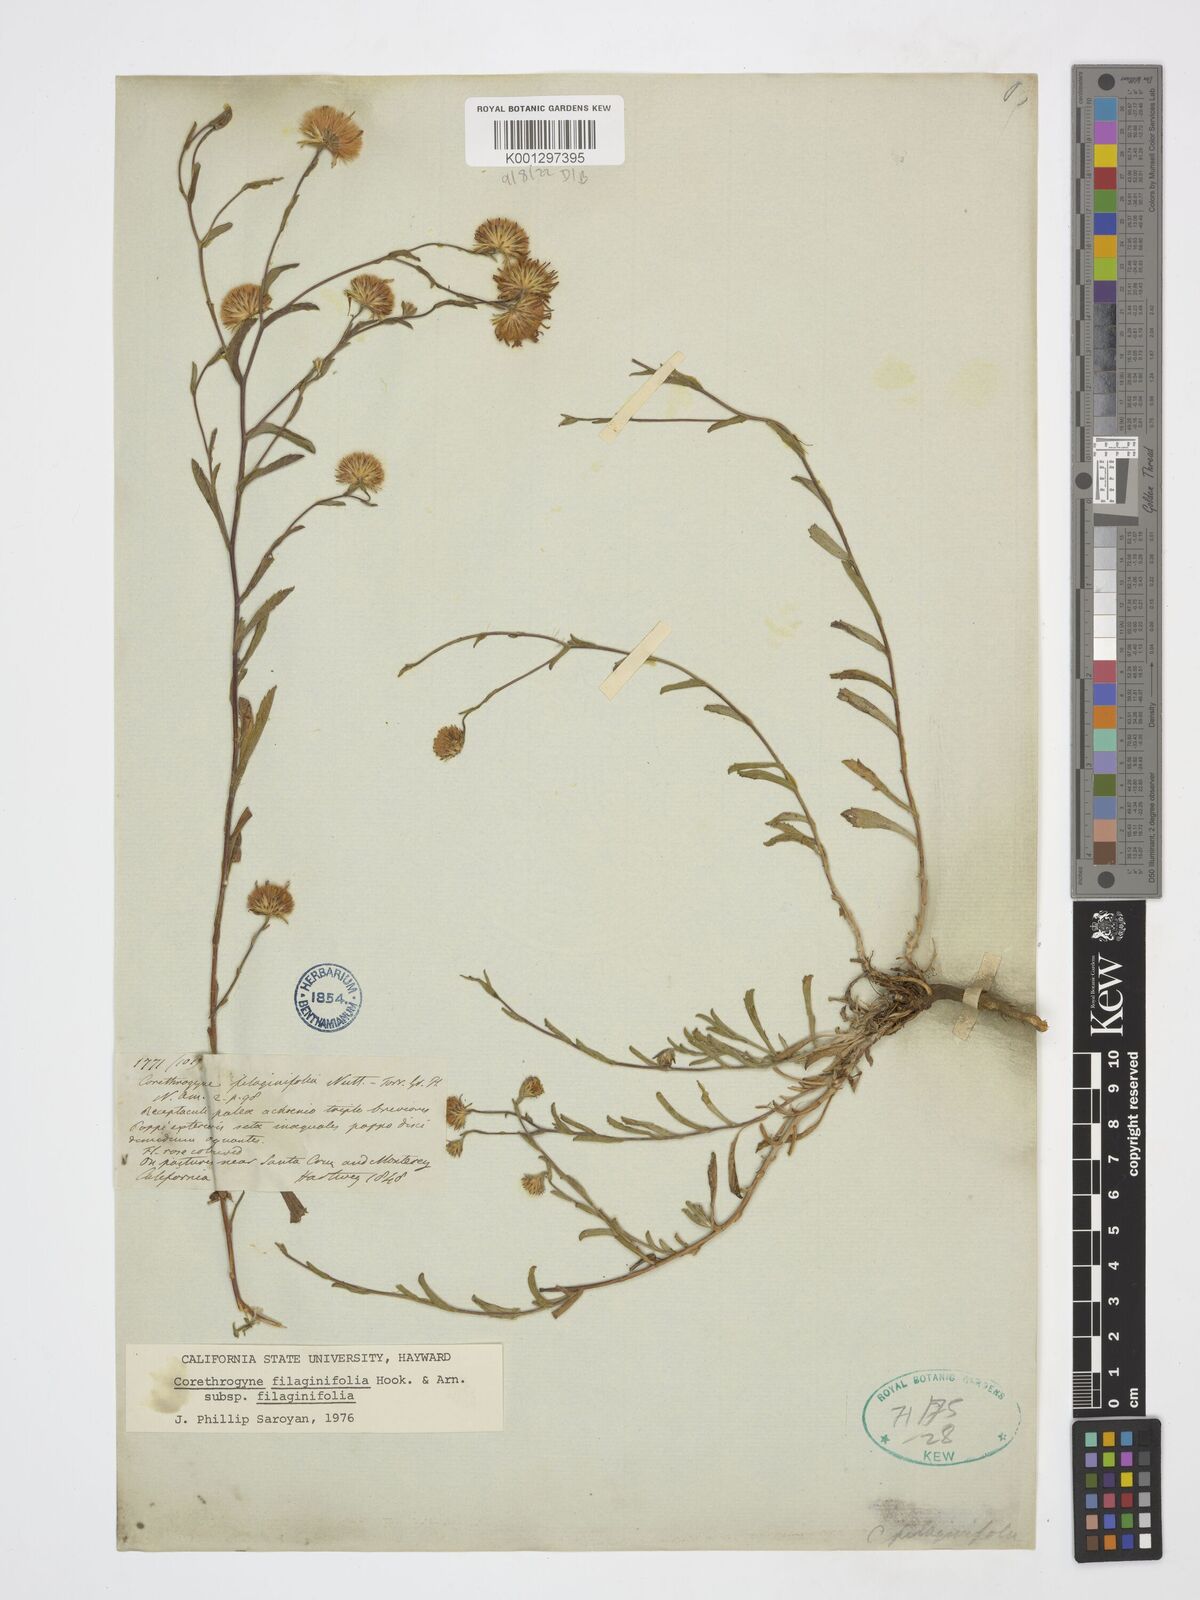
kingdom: Plantae
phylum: Tracheophyta
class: Magnoliopsida
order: Asterales
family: Asteraceae
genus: Corethrogyne
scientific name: Corethrogyne filaginifolia
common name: Sand-aster
